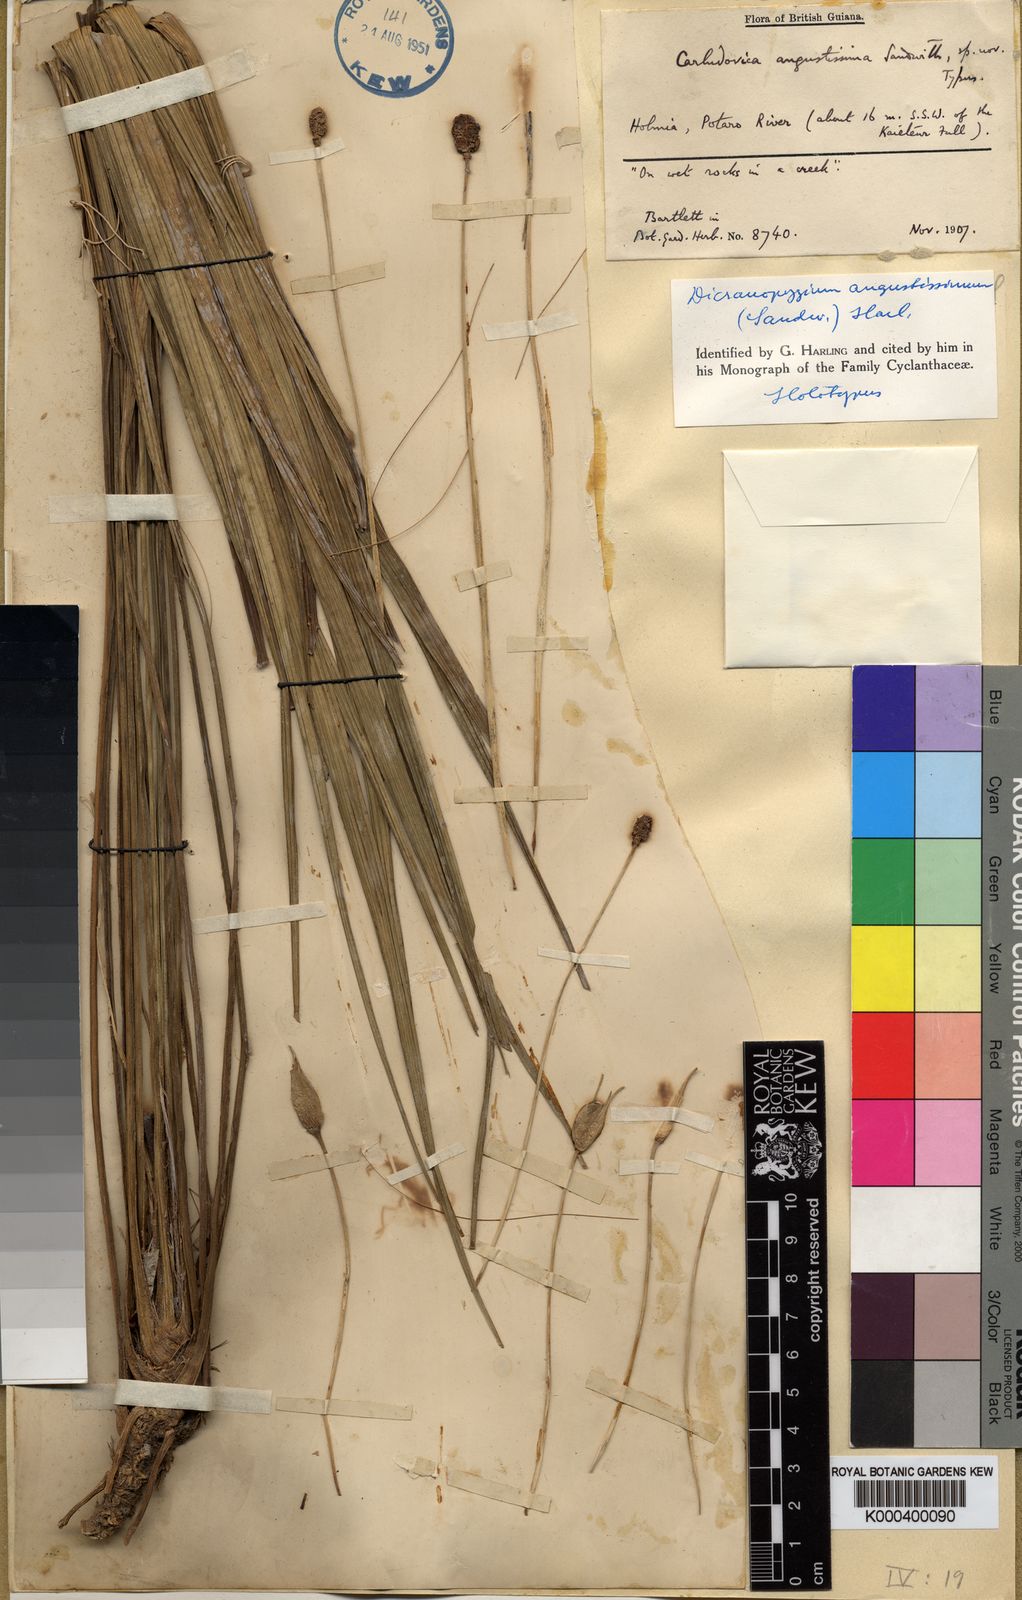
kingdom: Plantae
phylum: Tracheophyta
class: Liliopsida
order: Pandanales
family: Cyclanthaceae
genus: Dicranopygium
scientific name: Dicranopygium angustissimum
